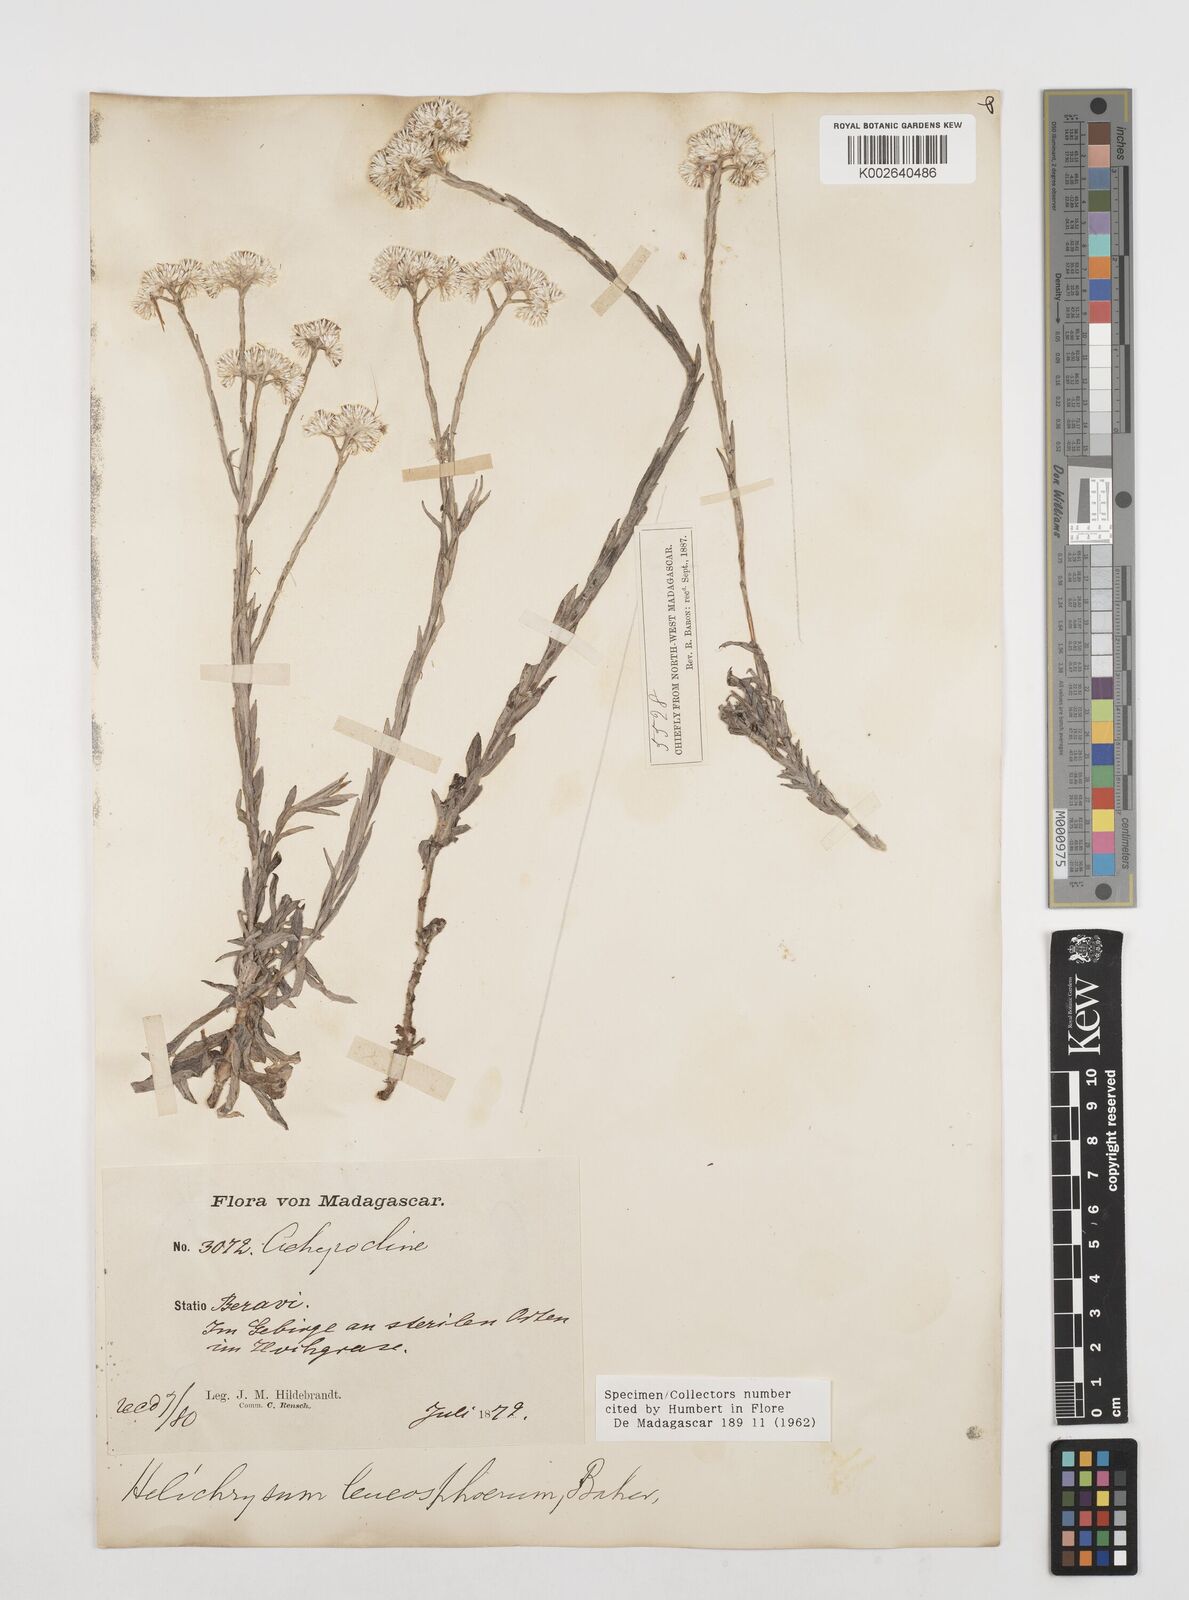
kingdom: Plantae
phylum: Tracheophyta
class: Magnoliopsida
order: Asterales
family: Asteraceae
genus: Helichrysum
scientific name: Helichrysum leucosphaerum
